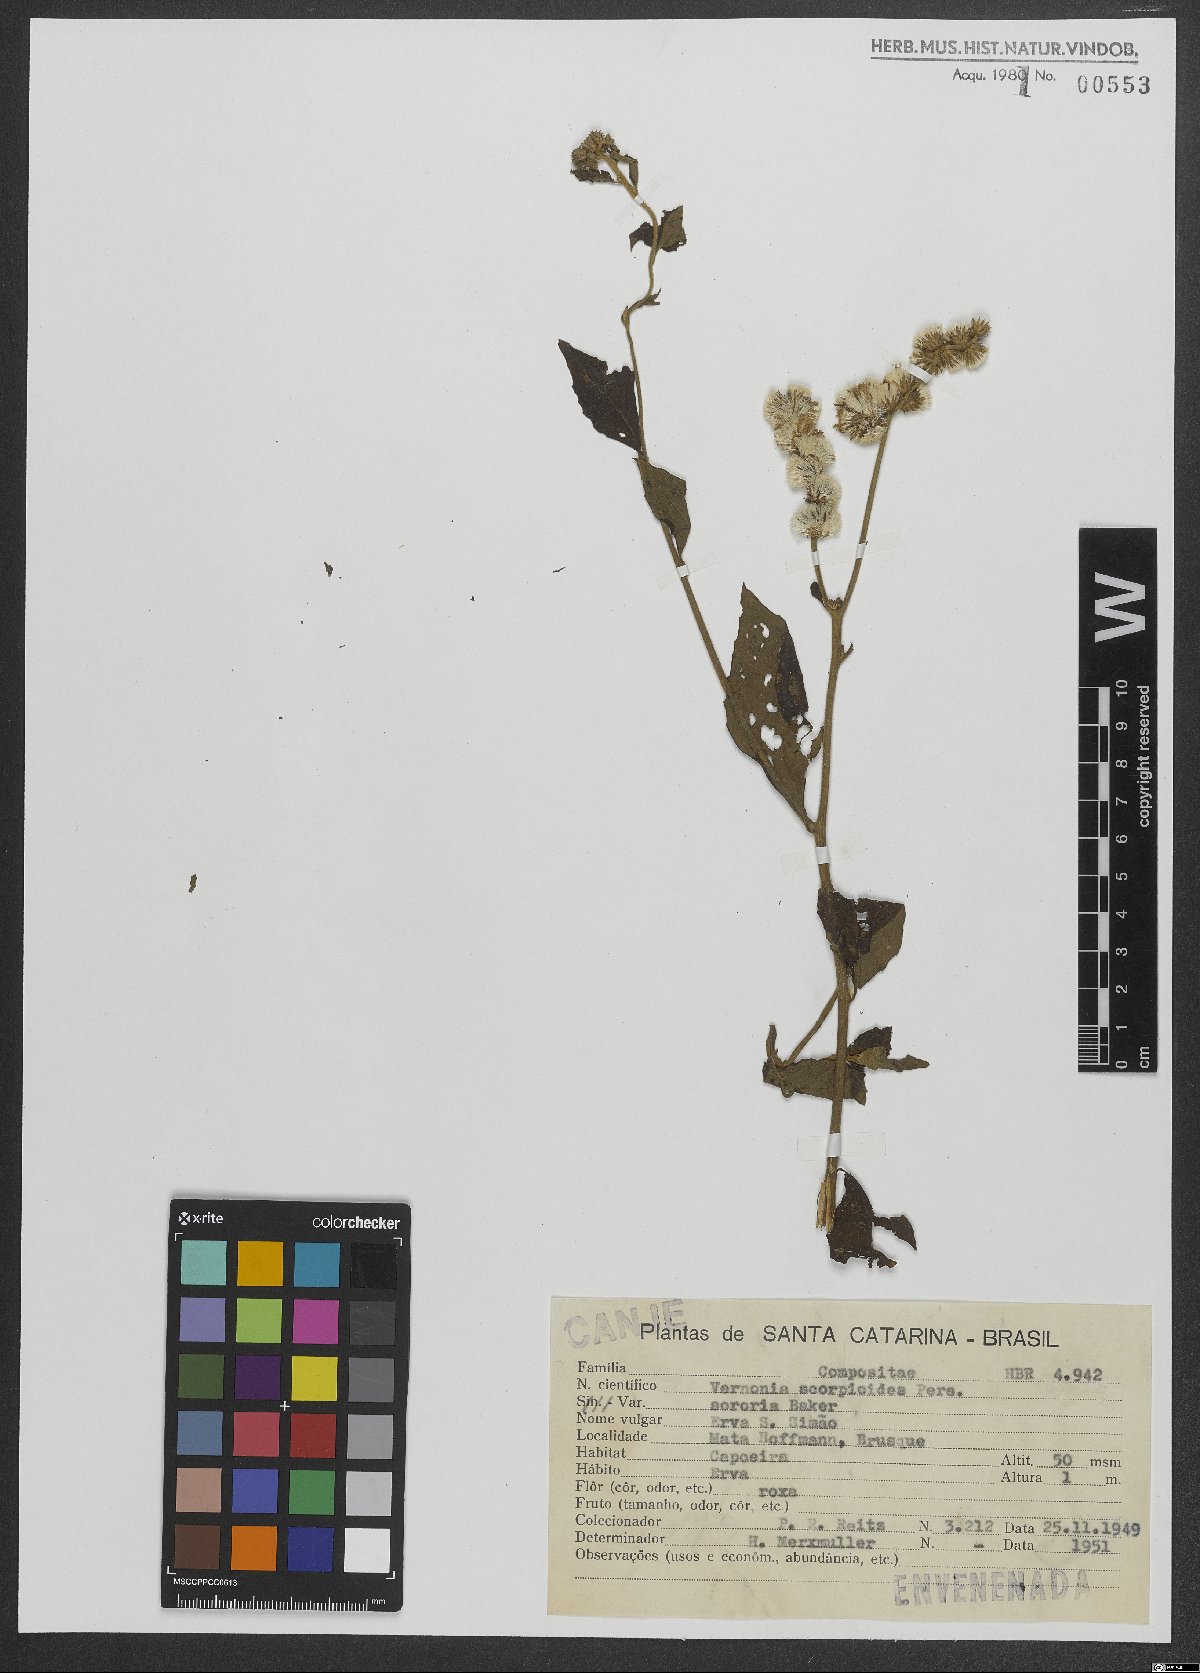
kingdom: Plantae
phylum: Tracheophyta
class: Magnoliopsida
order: Asterales
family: Asteraceae
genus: Cyrtocymura
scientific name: Cyrtocymura scorpioides
